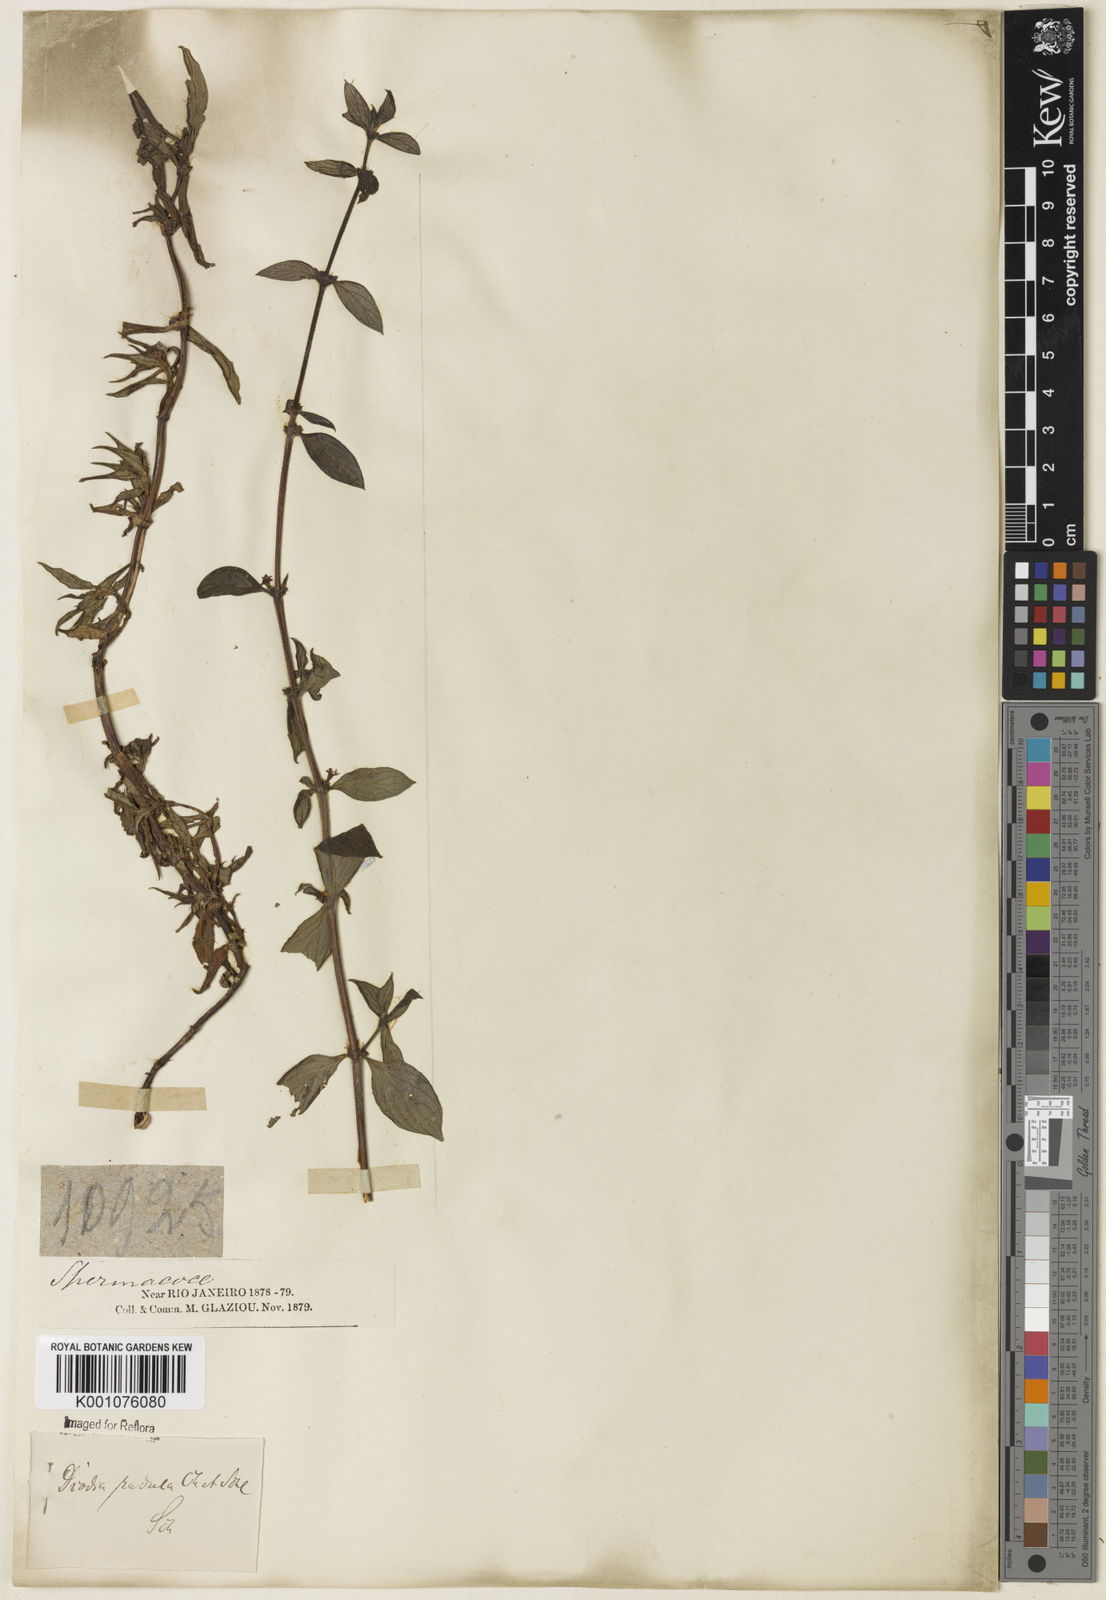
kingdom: Plantae
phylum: Tracheophyta
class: Magnoliopsida
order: Gentianales
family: Rubiaceae
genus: Hexasepalum
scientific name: Hexasepalum radulum
